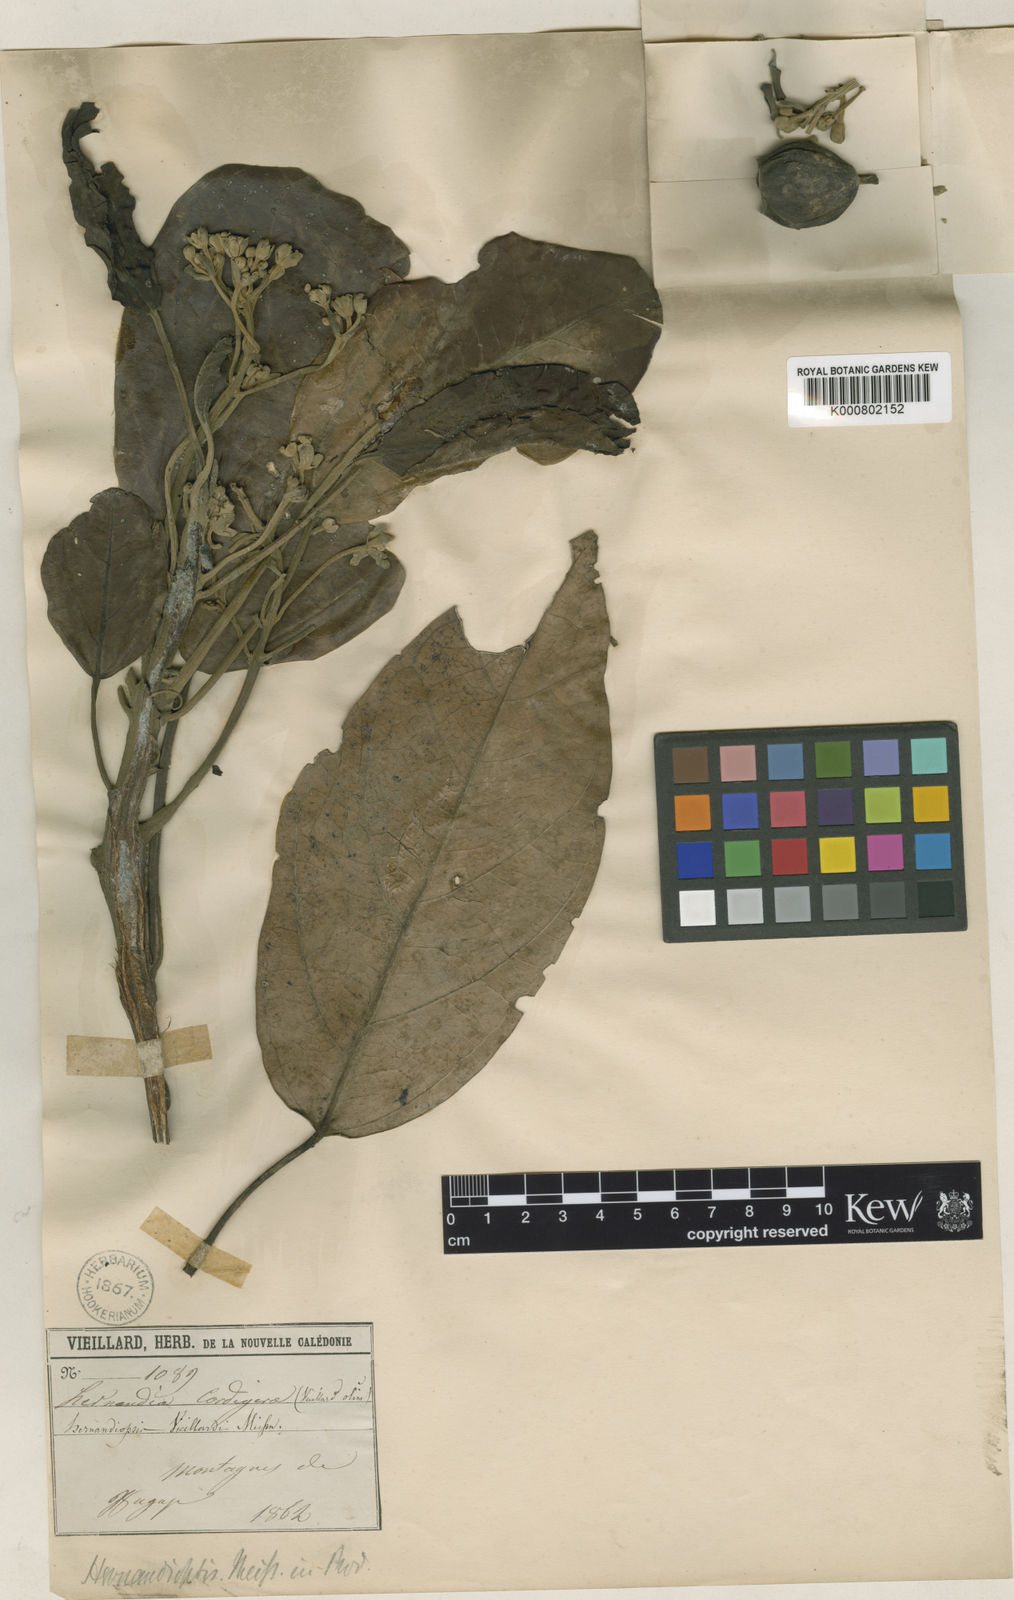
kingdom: Plantae
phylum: Tracheophyta
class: Magnoliopsida
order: Laurales
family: Hernandiaceae
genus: Hernandia
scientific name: Hernandia cordigera
